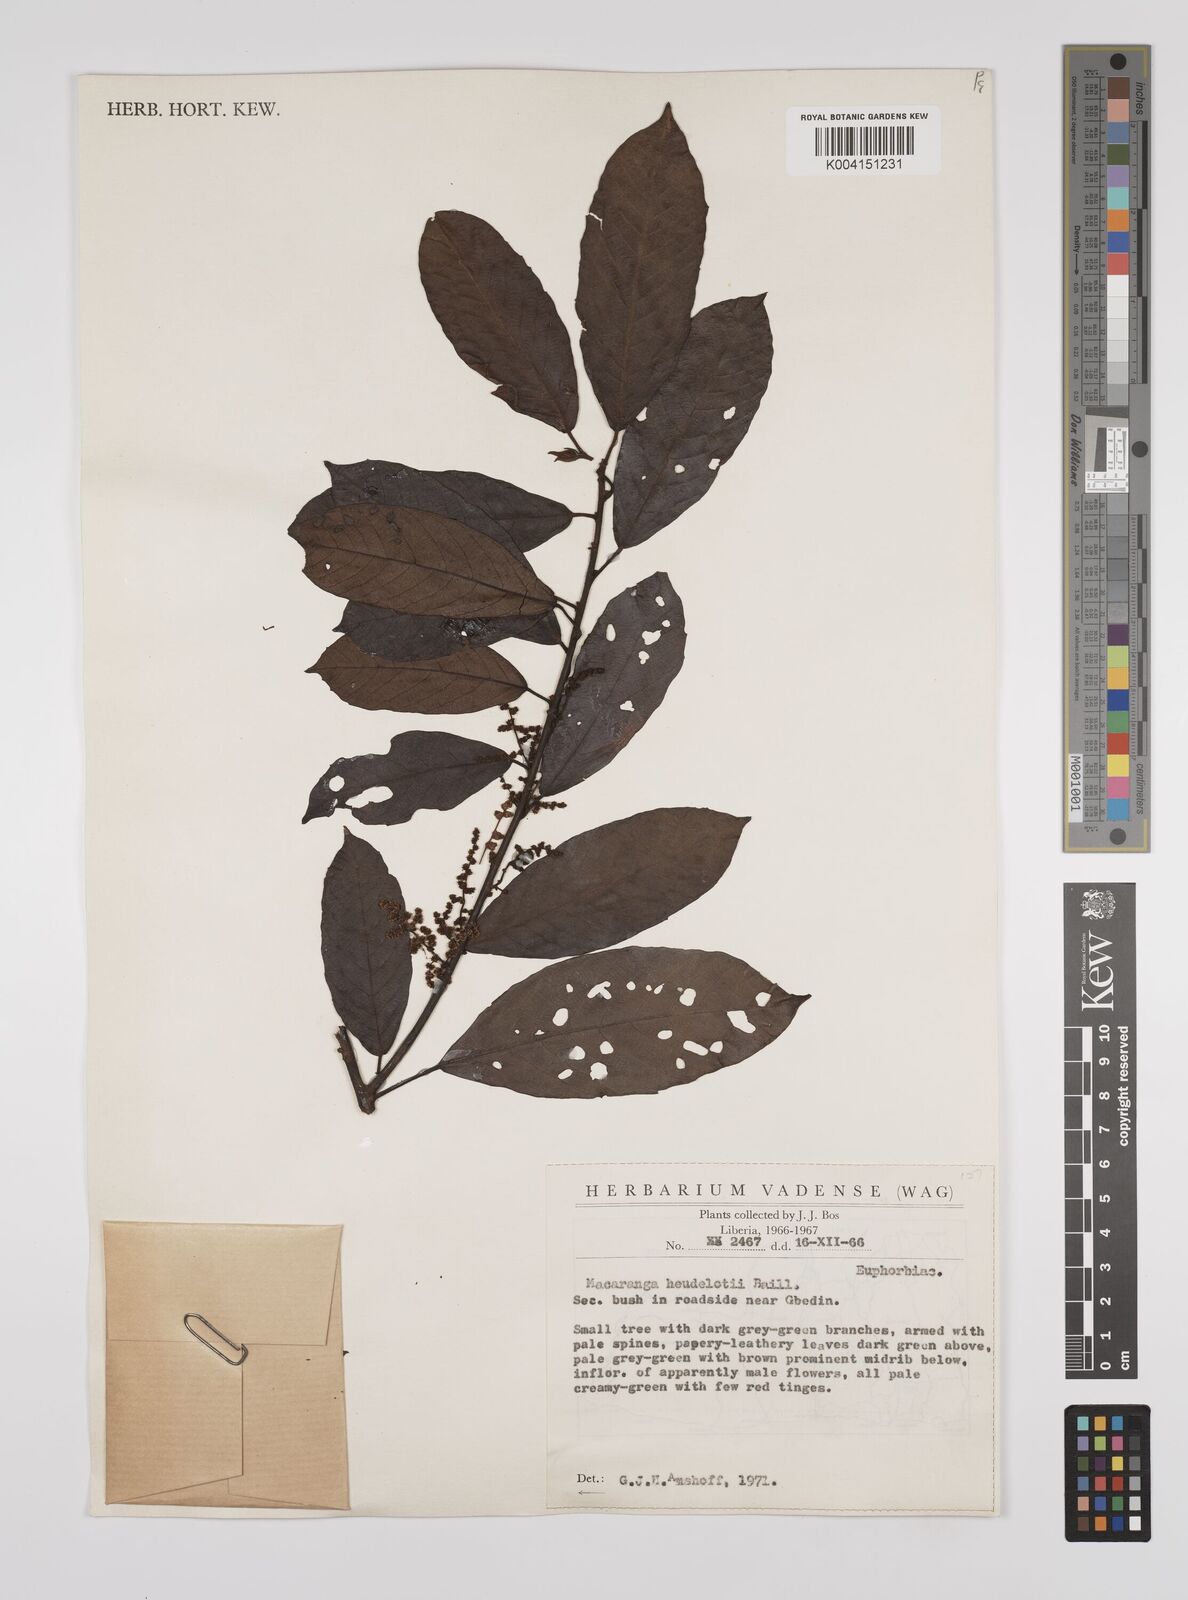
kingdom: Plantae
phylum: Tracheophyta
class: Magnoliopsida
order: Malpighiales
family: Euphorbiaceae
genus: Macaranga
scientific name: Macaranga heudelotii
